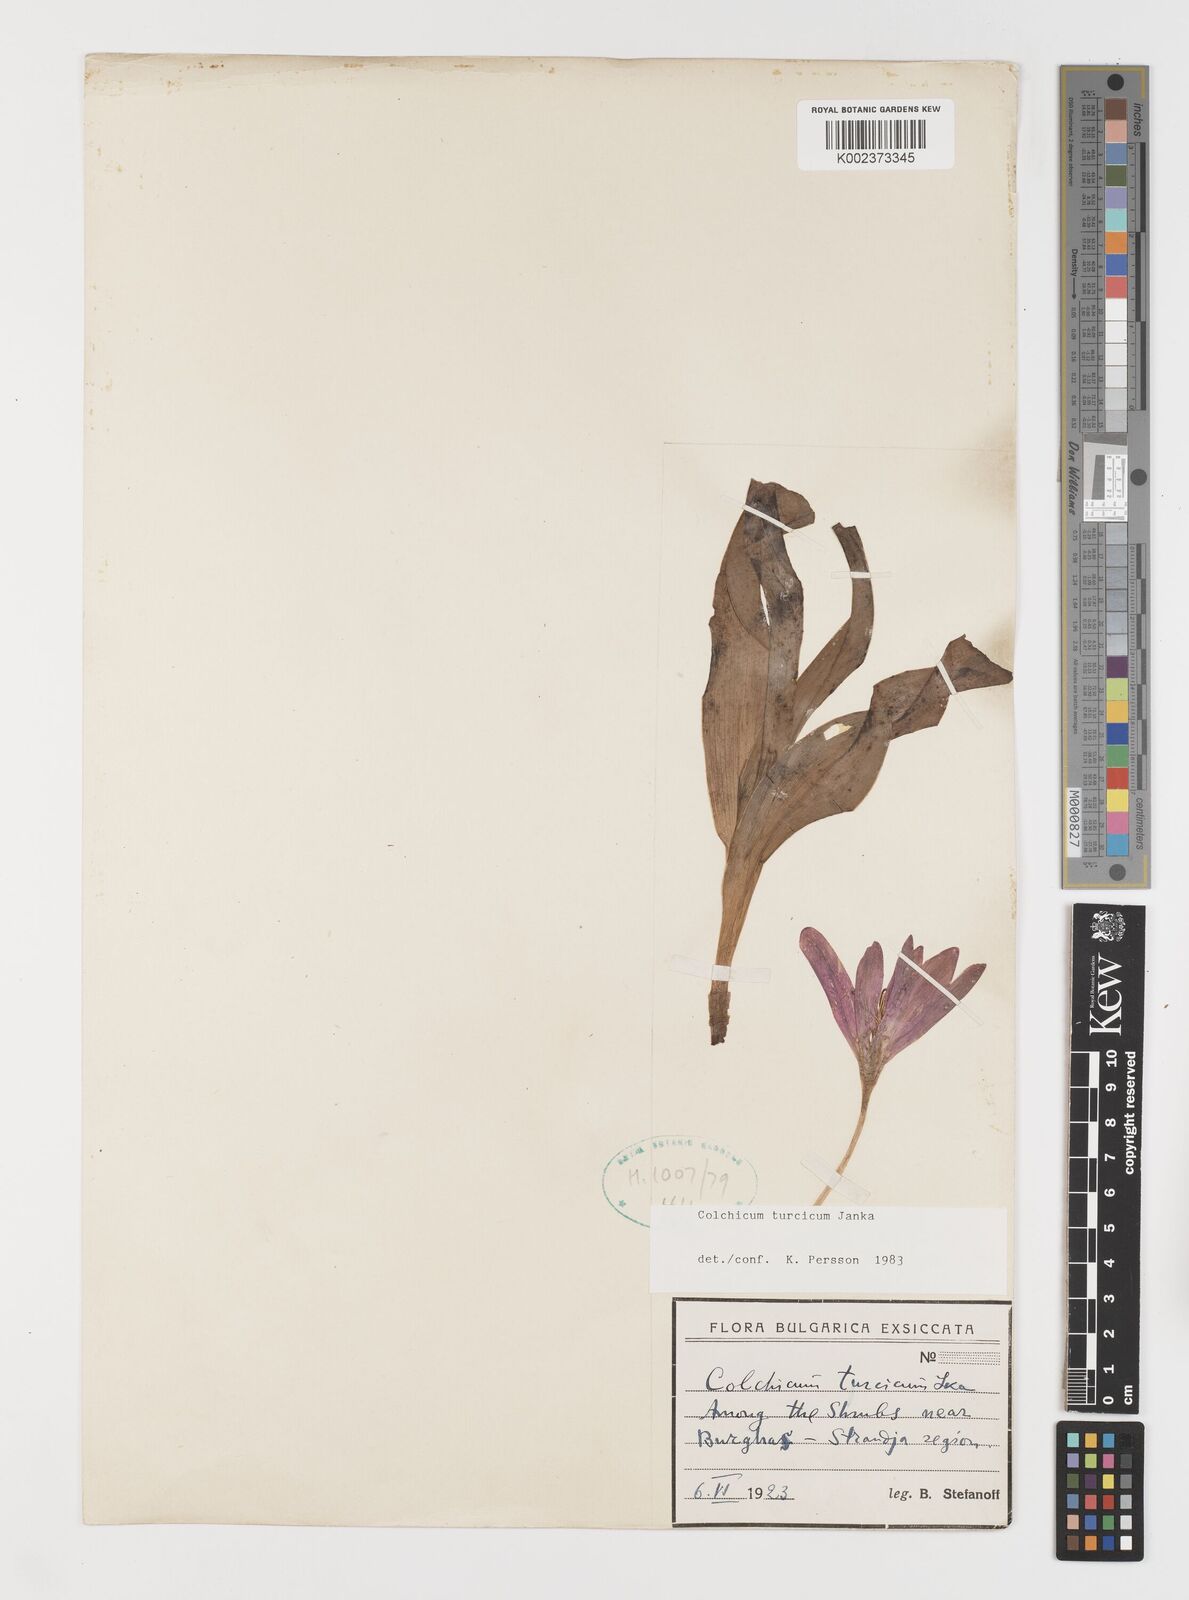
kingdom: Plantae
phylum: Tracheophyta
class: Liliopsida
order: Liliales
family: Colchicaceae
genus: Colchicum
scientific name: Colchicum turcicum
